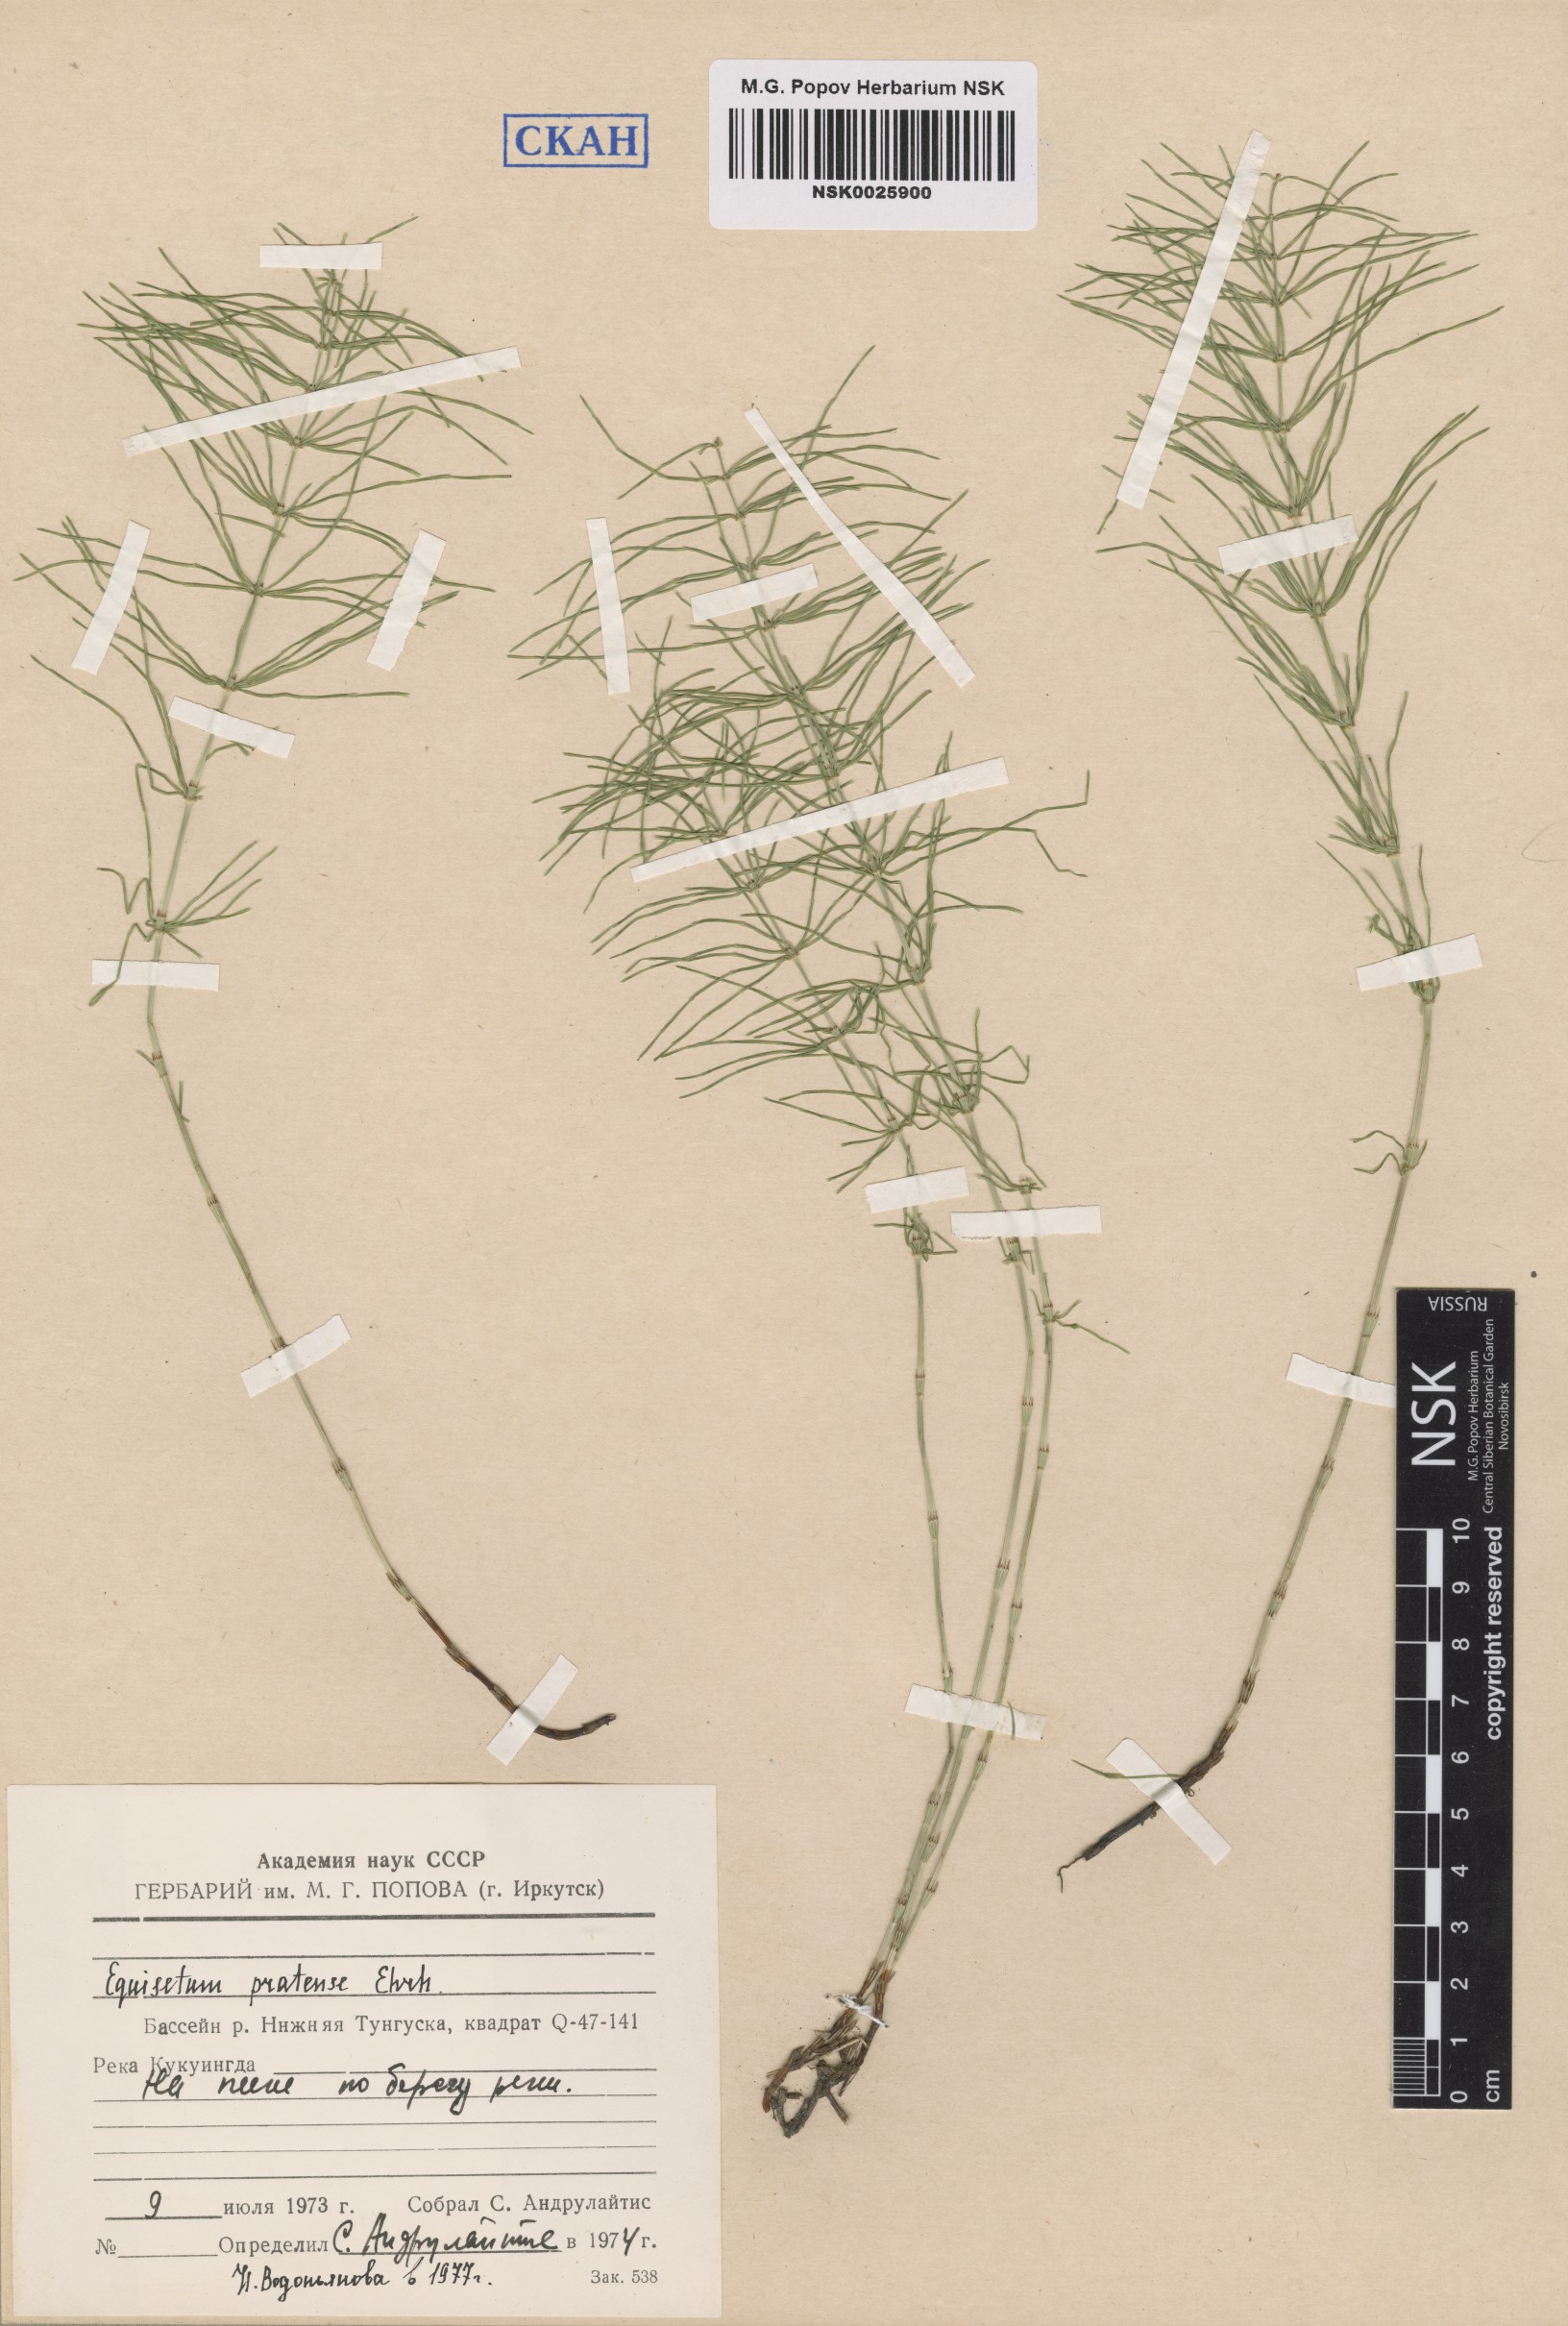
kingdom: Plantae
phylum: Tracheophyta
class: Polypodiopsida
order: Equisetales
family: Equisetaceae
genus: Equisetum
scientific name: Equisetum pratense
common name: Meadow horsetail
